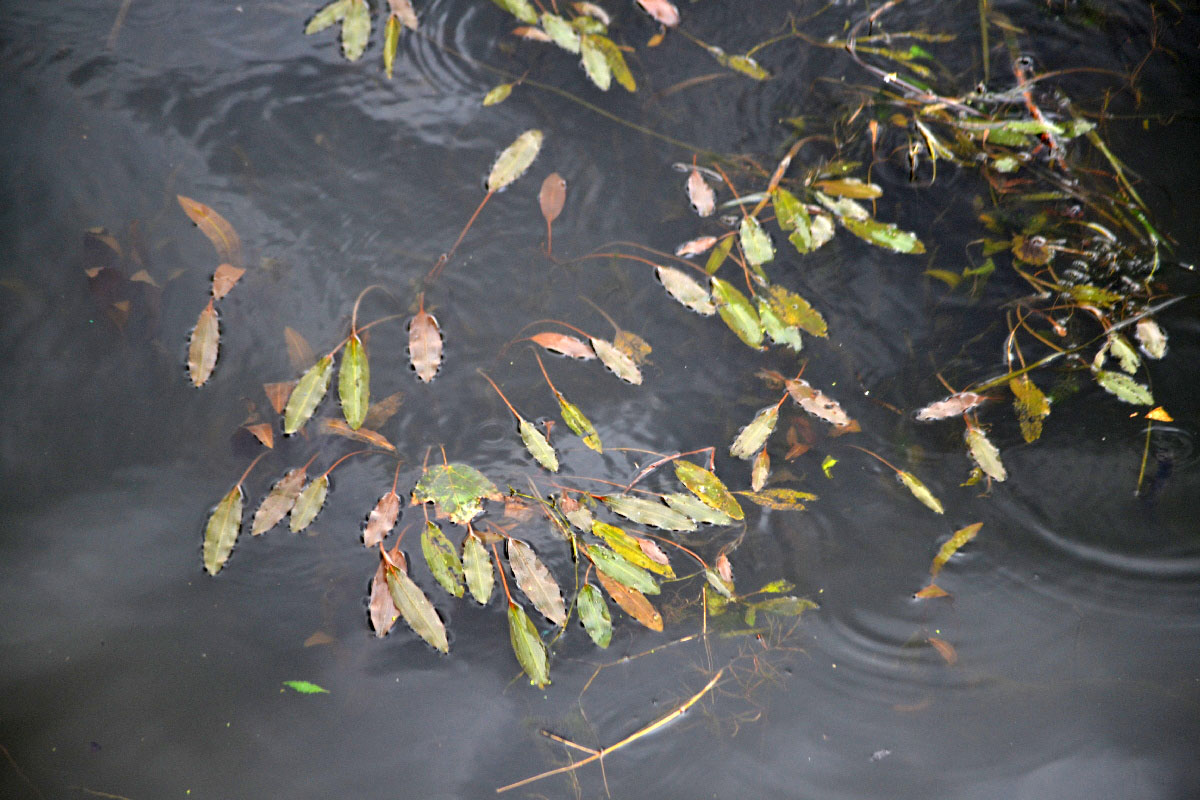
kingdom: Plantae
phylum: Tracheophyta
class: Liliopsida
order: Alismatales
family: Potamogetonaceae
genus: Potamogeton
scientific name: Potamogeton alpinus
